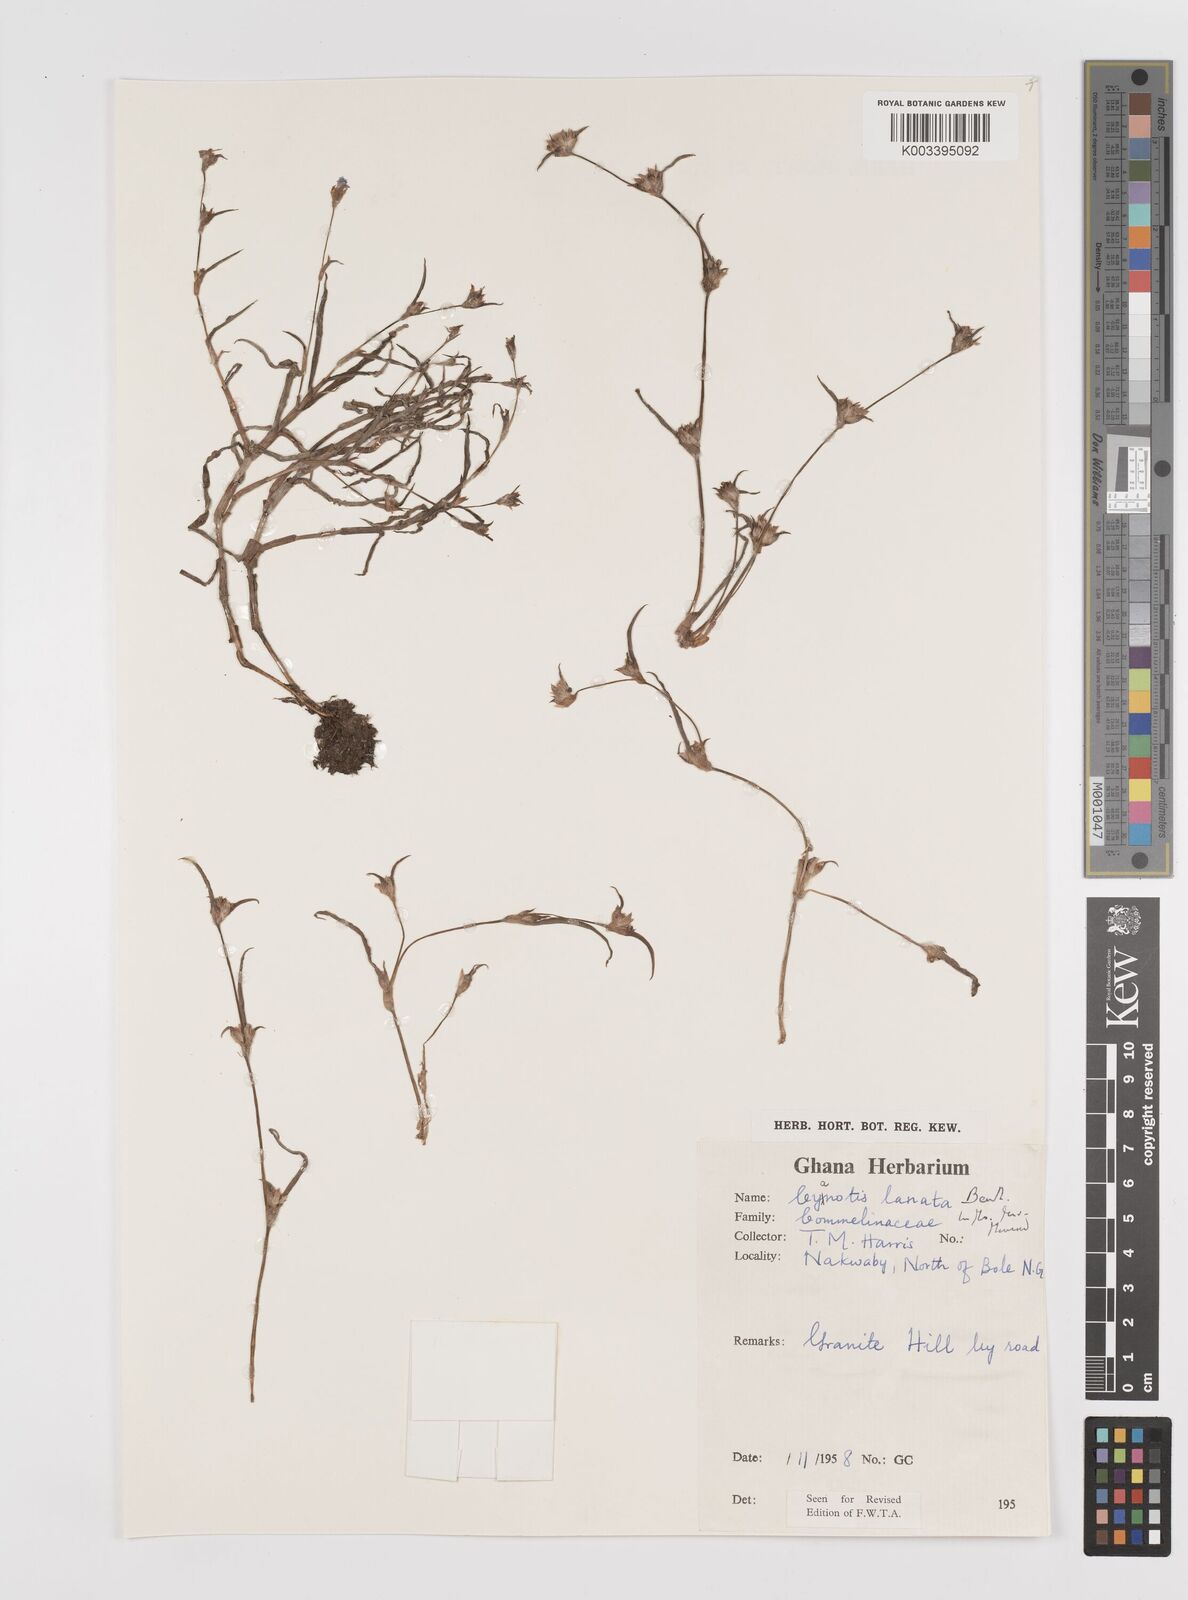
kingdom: Plantae
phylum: Tracheophyta
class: Liliopsida
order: Commelinales
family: Commelinaceae
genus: Cyanotis
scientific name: Cyanotis lanata
